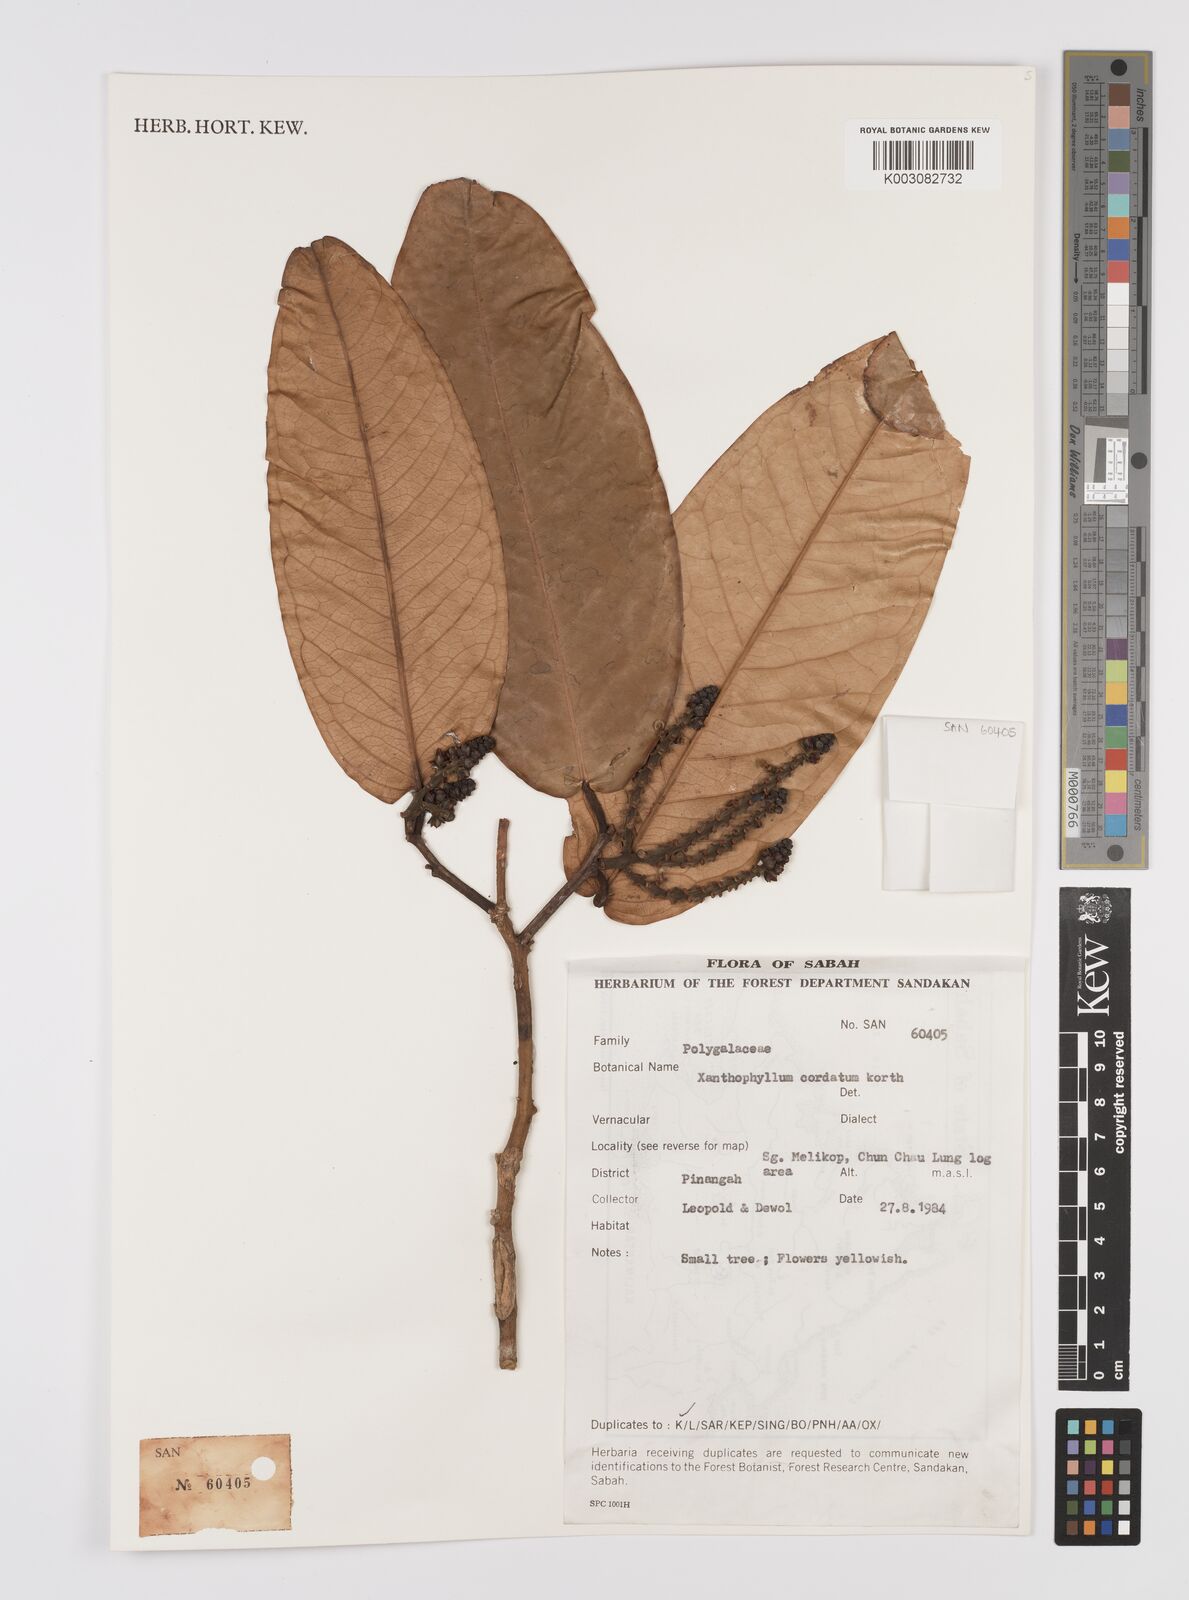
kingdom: Plantae
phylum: Tracheophyta
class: Magnoliopsida
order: Fabales
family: Polygalaceae
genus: Xanthophyllum
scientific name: Xanthophyllum adenotus
